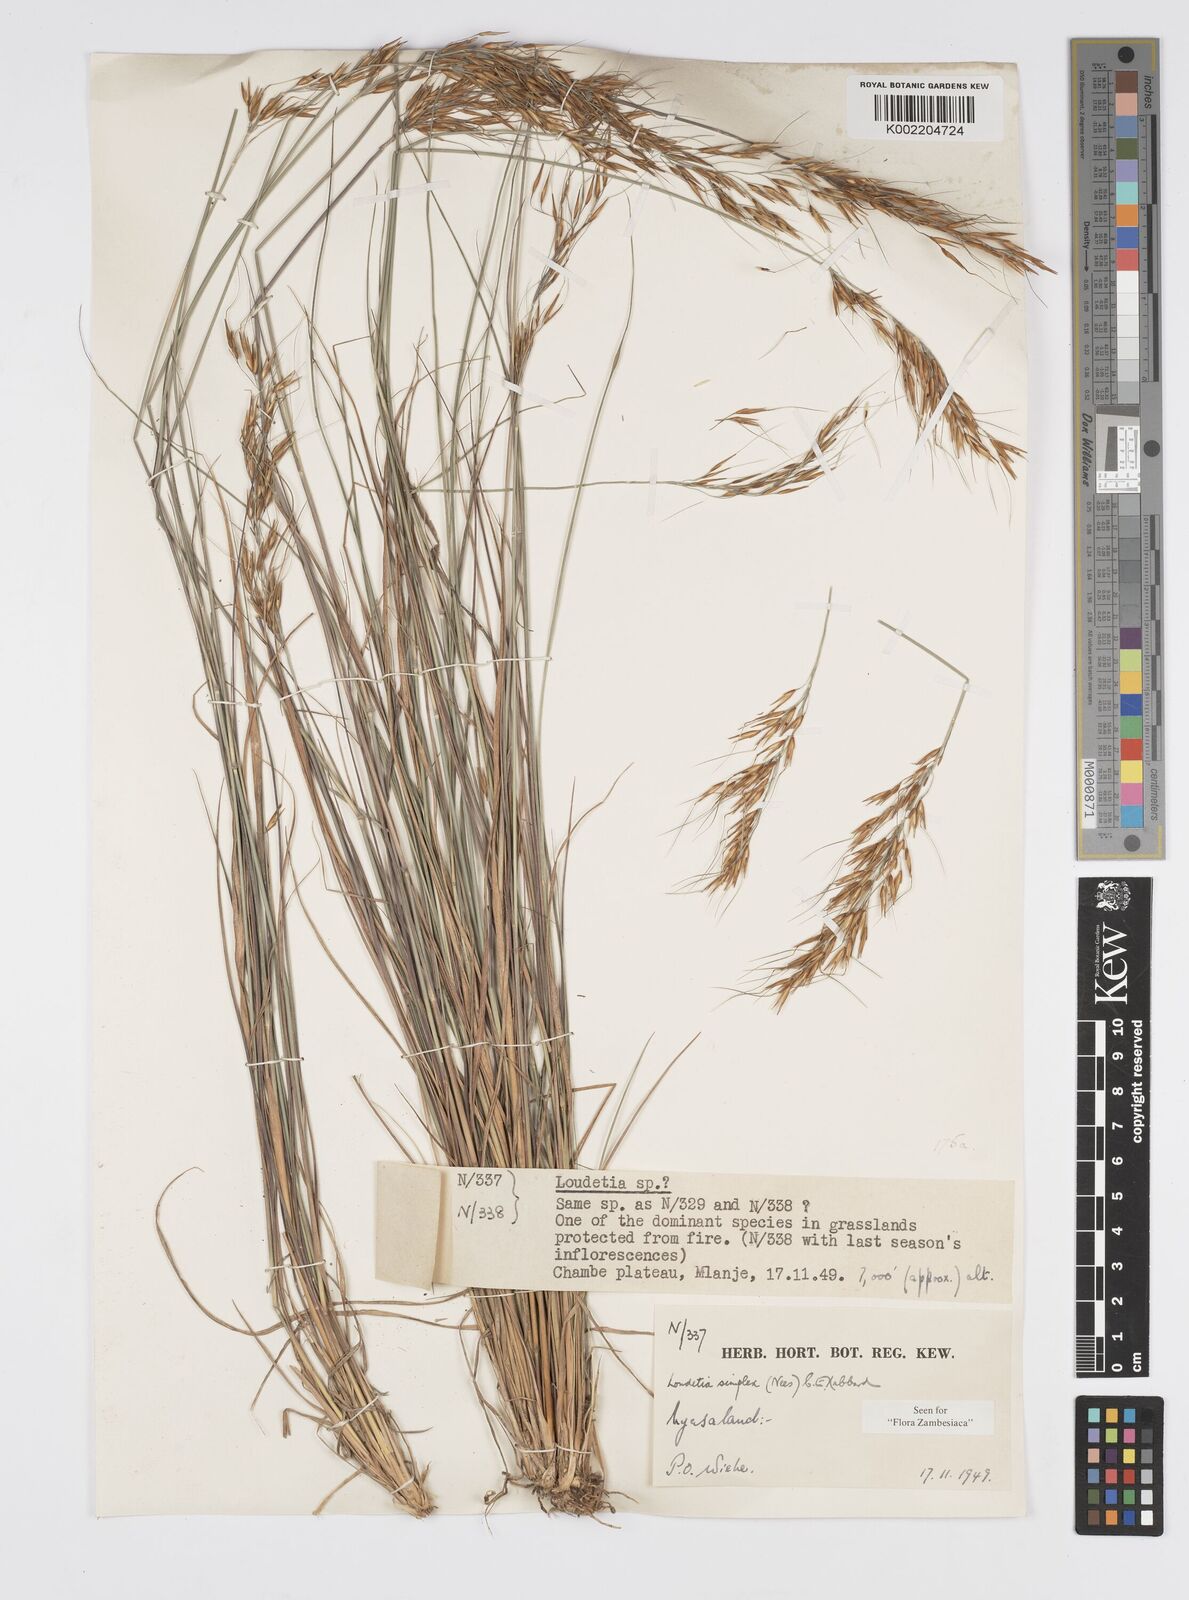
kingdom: Plantae
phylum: Tracheophyta
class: Liliopsida
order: Poales
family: Poaceae
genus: Loudetia
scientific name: Loudetia simplex
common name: Common russet grass
